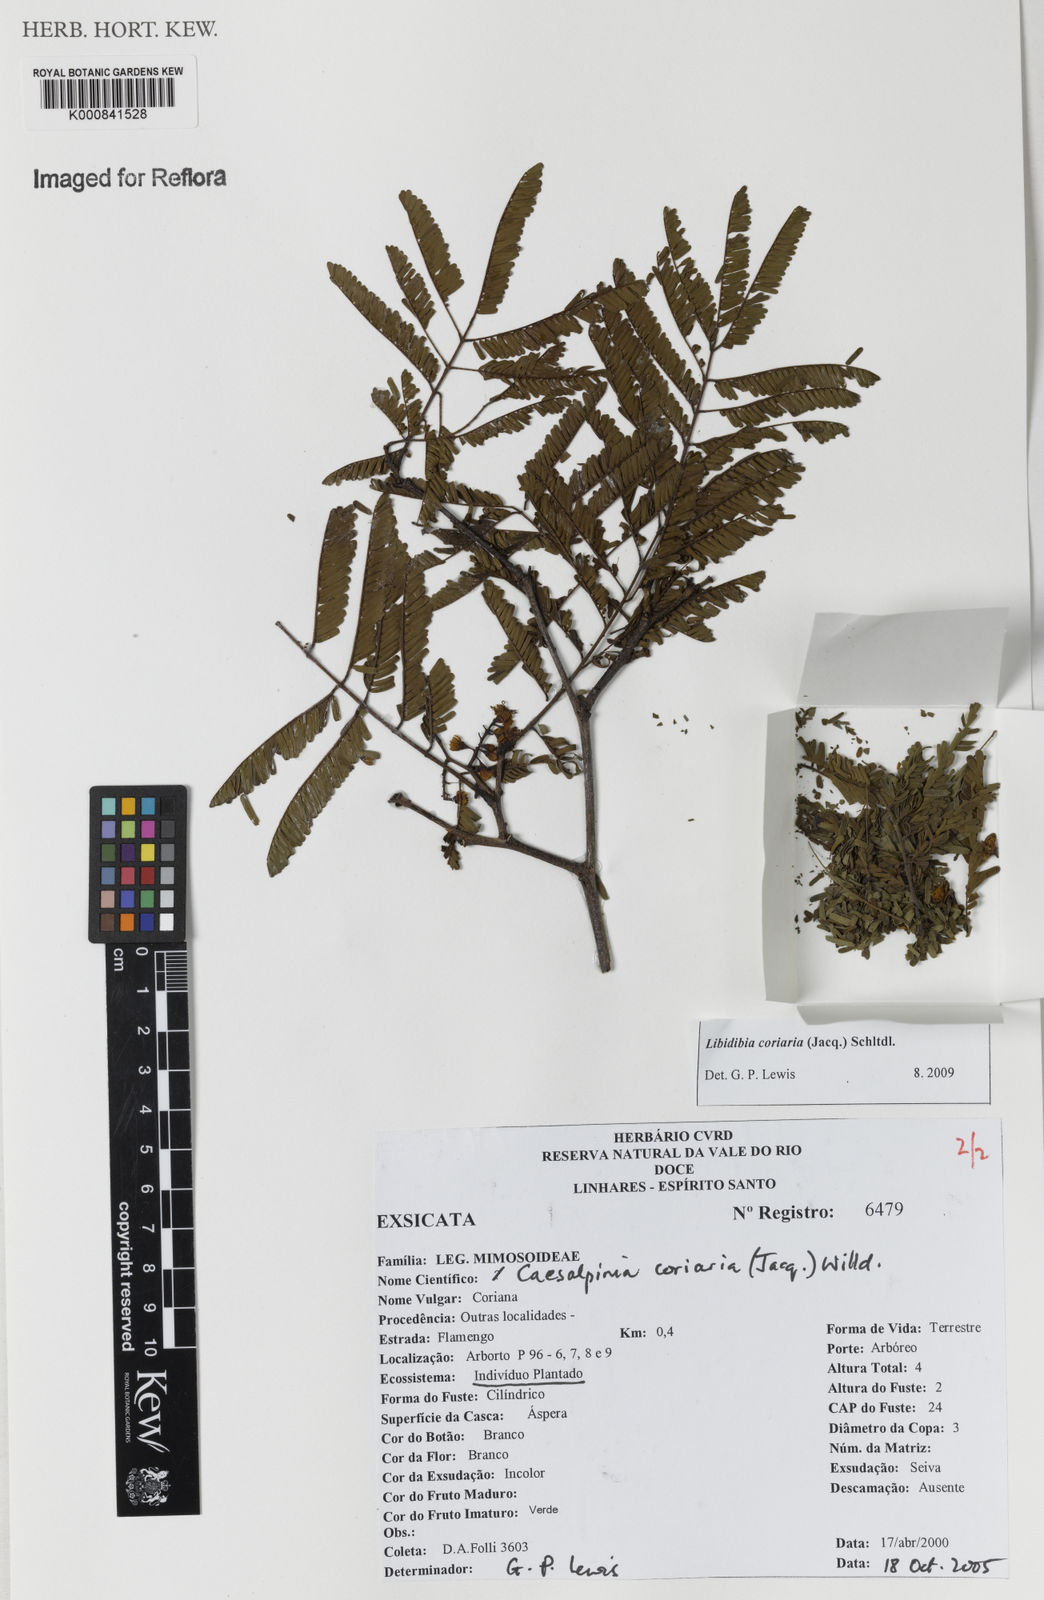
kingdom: Plantae
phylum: Tracheophyta
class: Magnoliopsida
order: Fabales
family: Fabaceae
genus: Libidibia
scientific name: Libidibia coriaria
